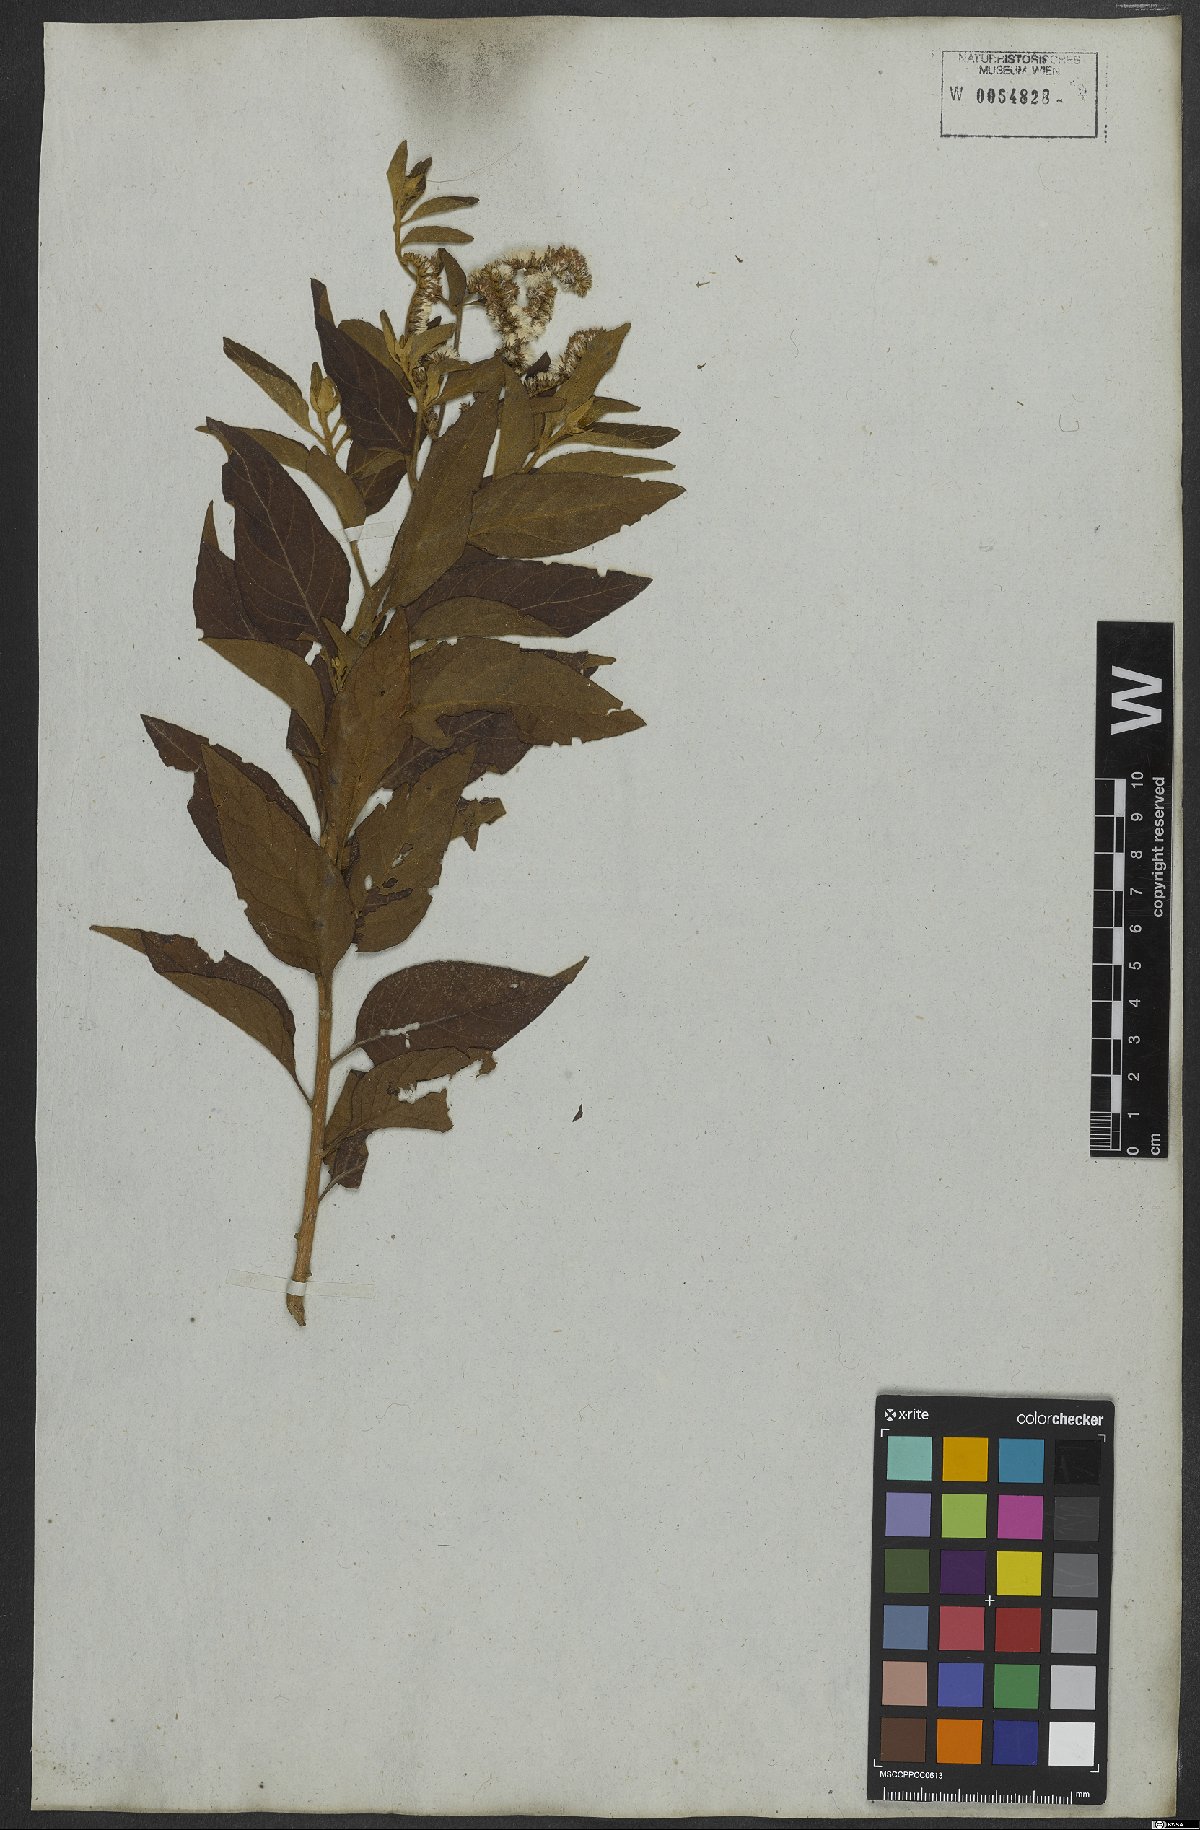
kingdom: Plantae
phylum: Tracheophyta
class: Magnoliopsida
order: Asterales
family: Asteraceae
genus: Cyrtocymura
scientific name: Cyrtocymura scorpioides
